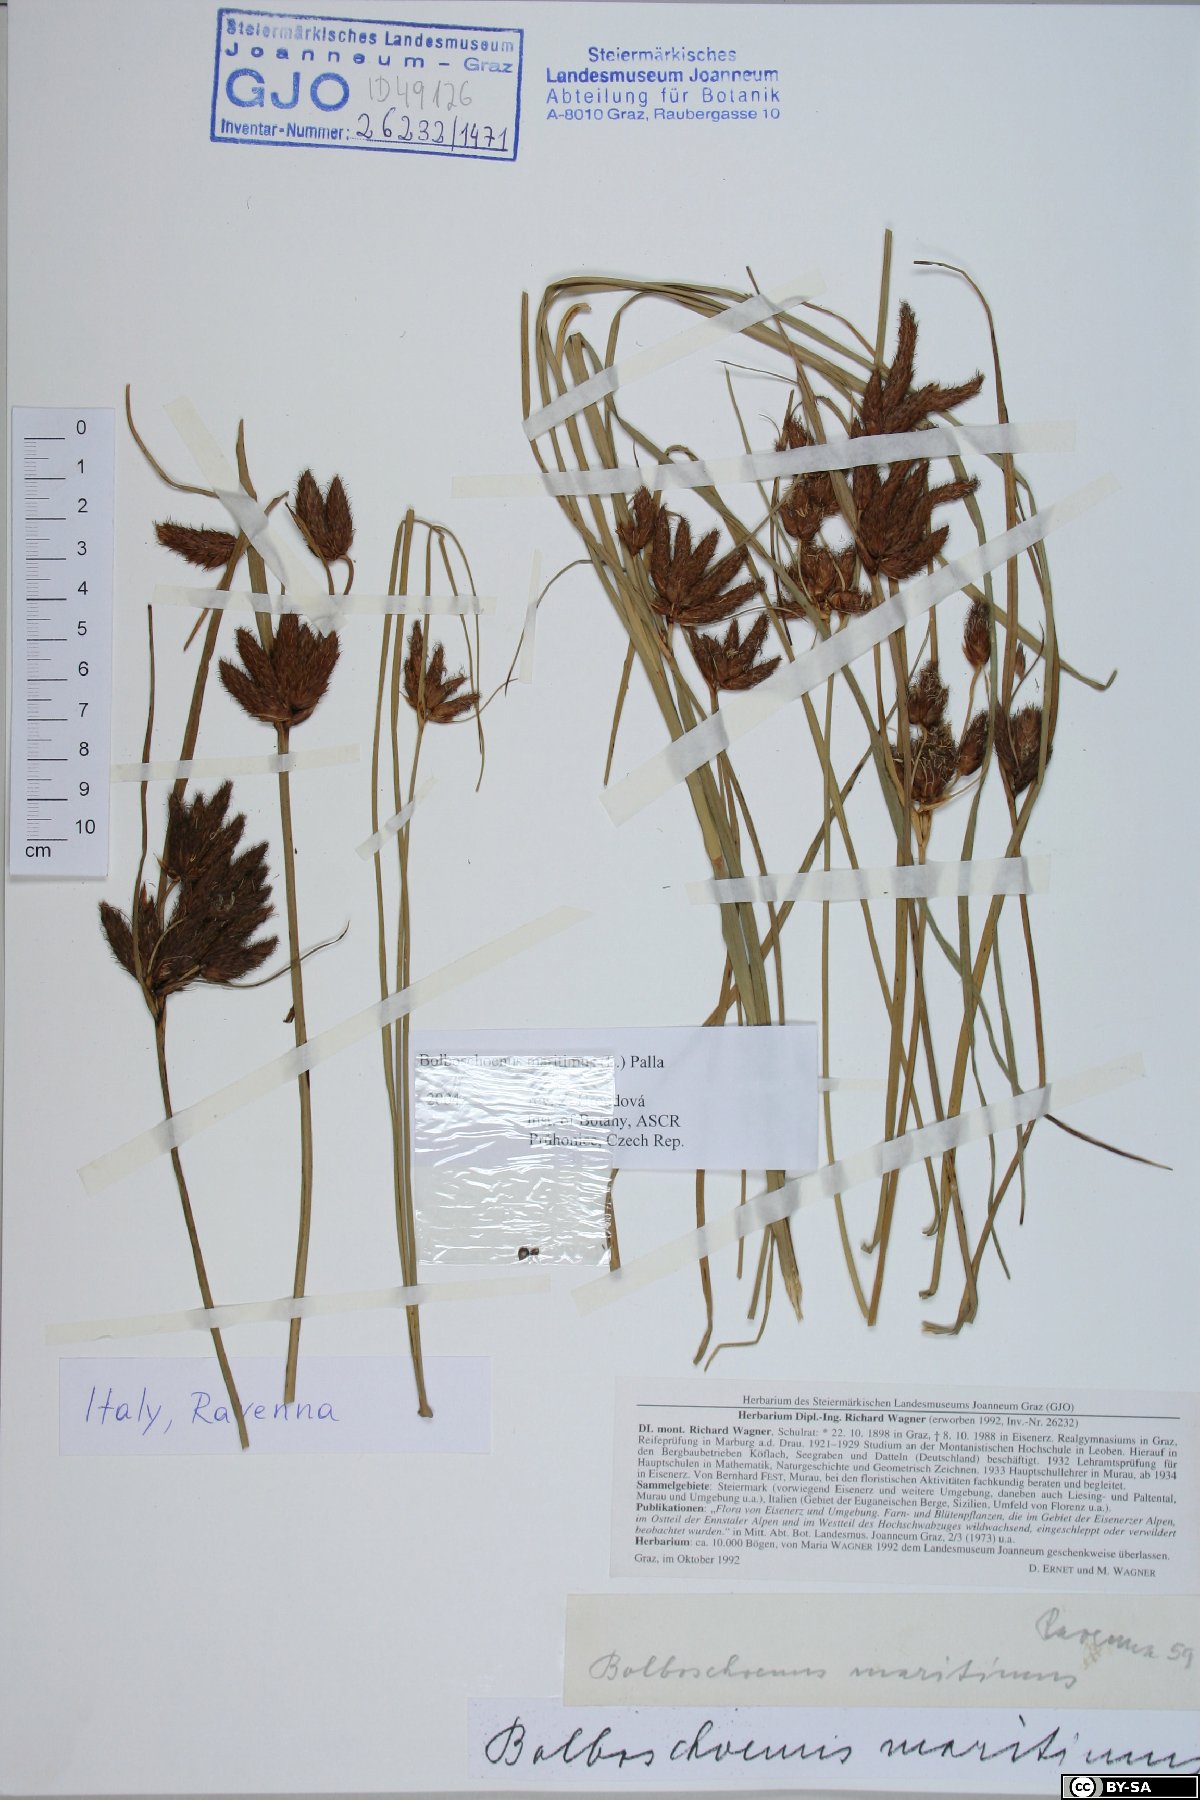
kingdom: Plantae
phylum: Tracheophyta
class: Liliopsida
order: Poales
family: Cyperaceae
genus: Bolboschoenus
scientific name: Bolboschoenus maritimus
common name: Sea club-rush
